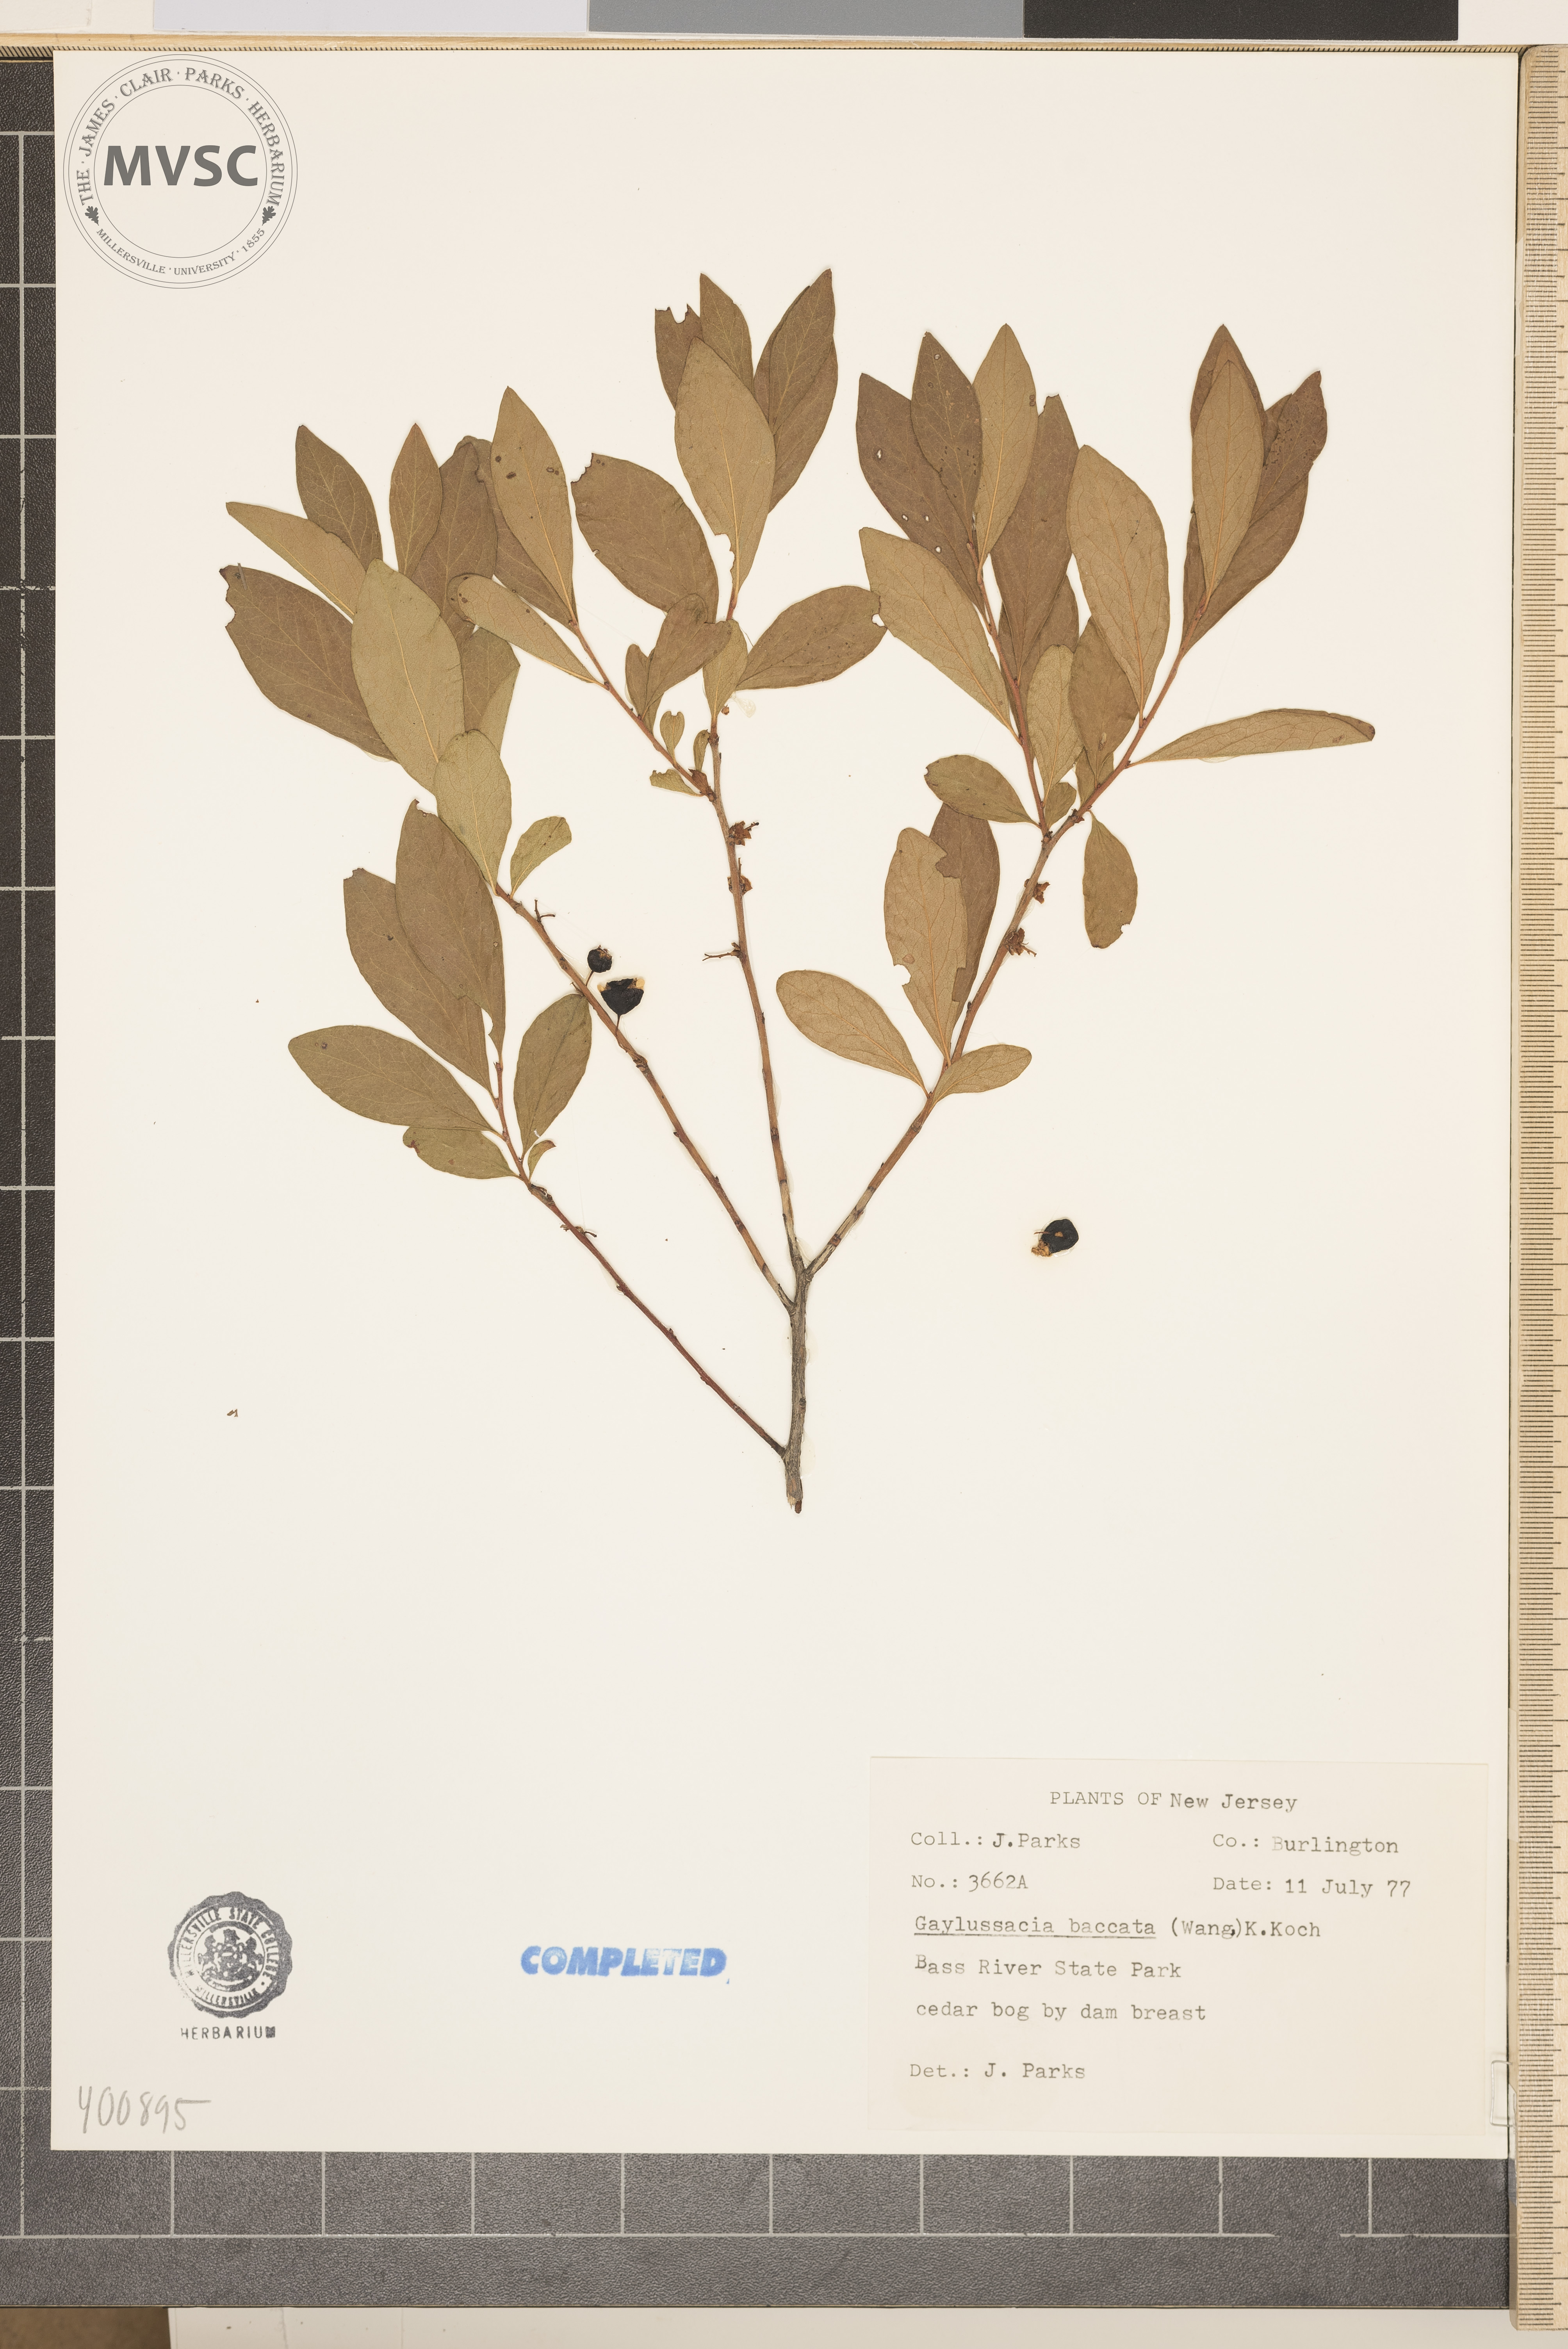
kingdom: Plantae
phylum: Tracheophyta
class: Magnoliopsida
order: Ericales
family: Ericaceae
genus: Gaylussacia
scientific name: Gaylussacia baccata
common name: Black huckleberry
